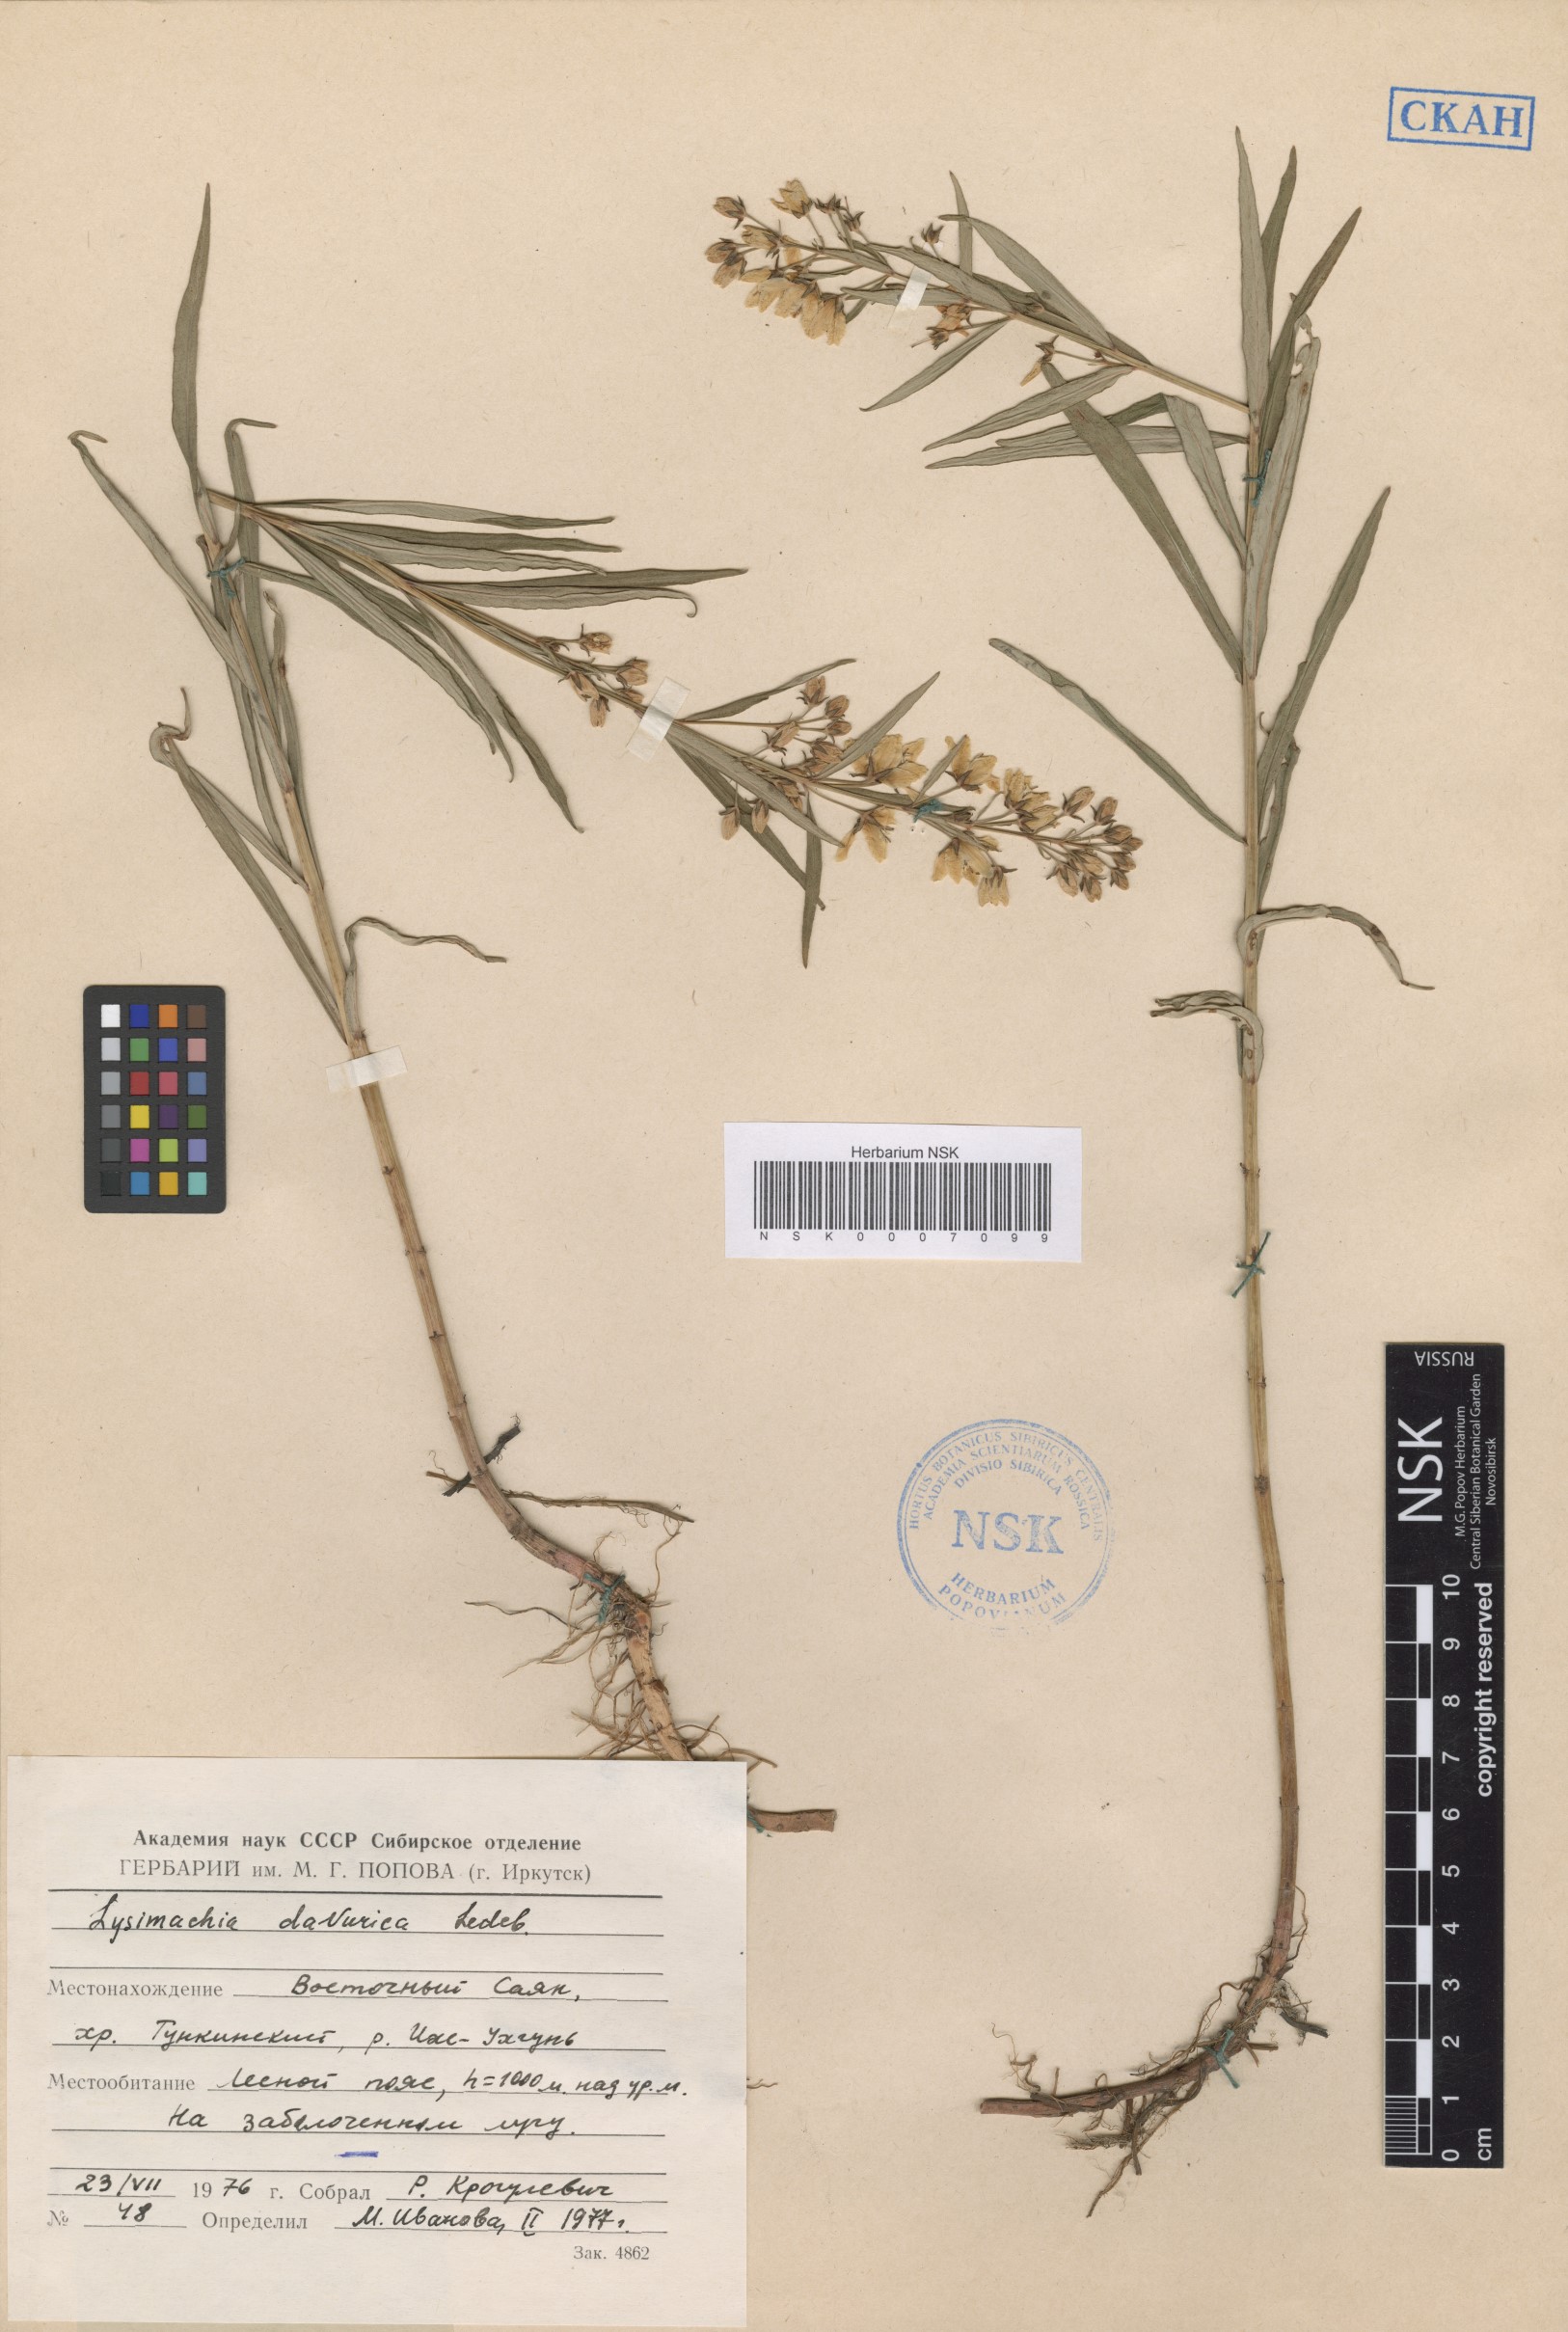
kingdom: Plantae
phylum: Tracheophyta
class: Magnoliopsida
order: Ericales
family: Primulaceae
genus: Lysimachia
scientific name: Lysimachia davurica
